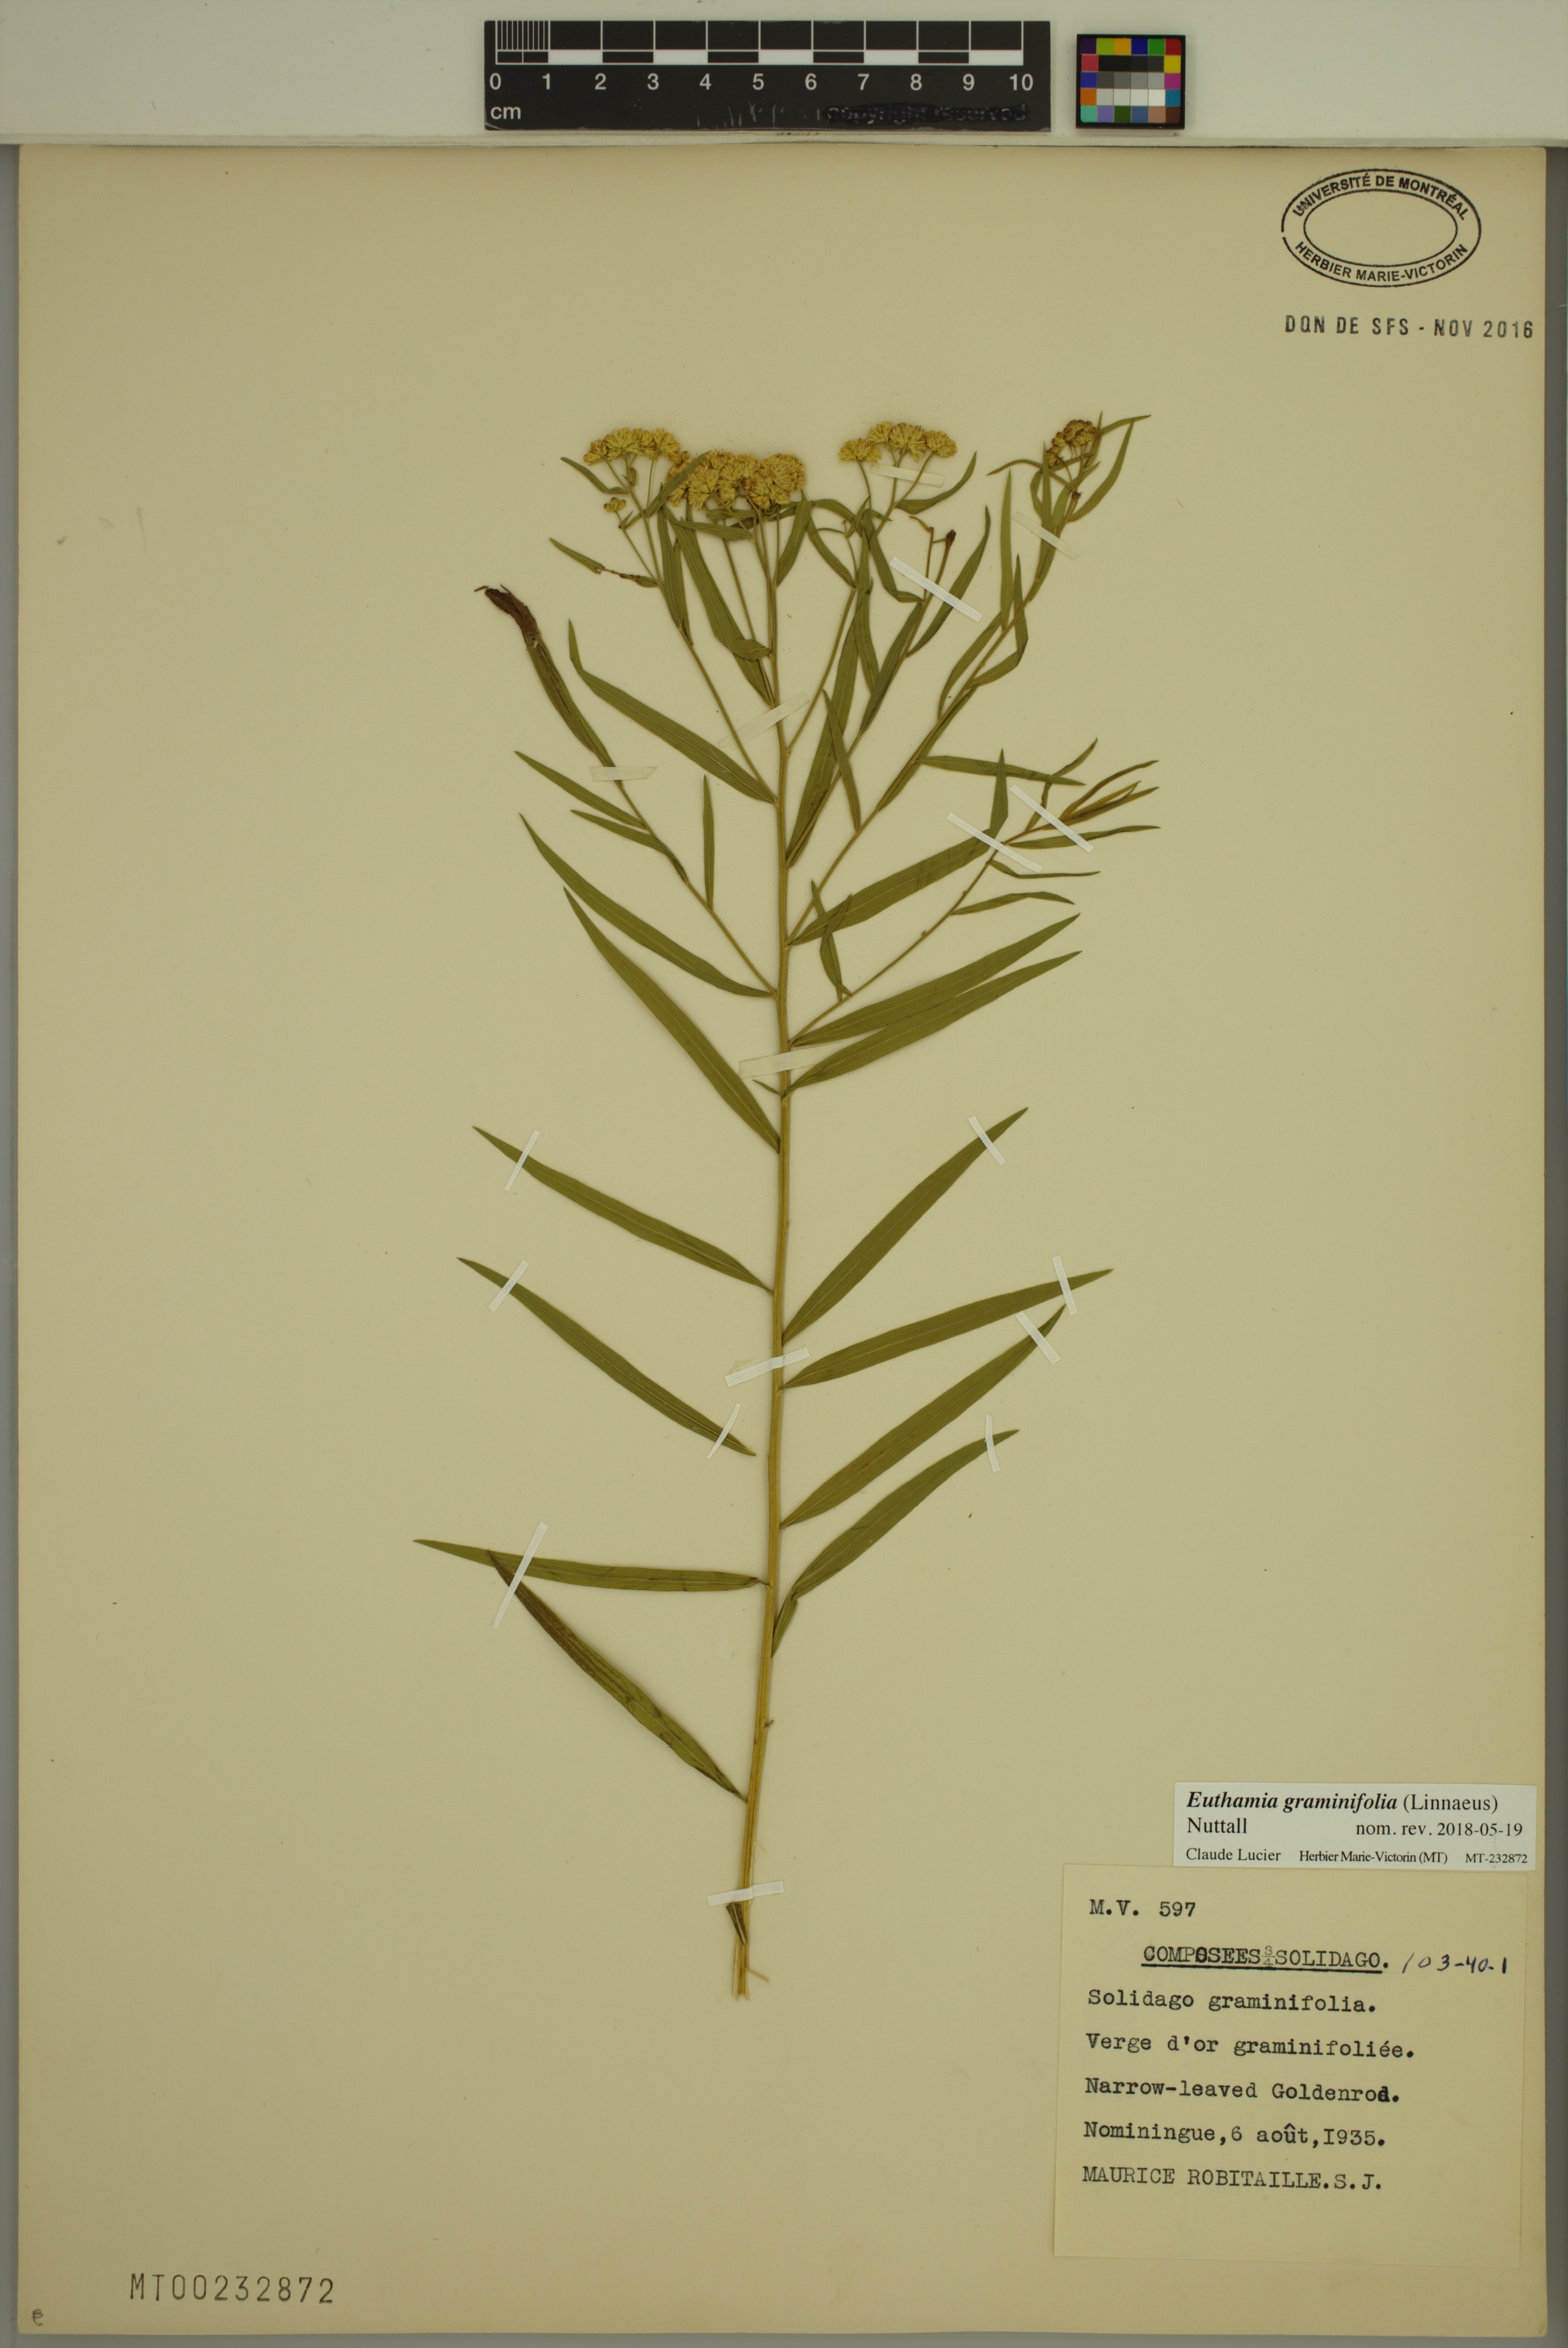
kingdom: Plantae
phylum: Tracheophyta
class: Magnoliopsida
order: Asterales
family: Asteraceae
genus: Euthamia
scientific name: Euthamia graminifolia
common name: Common goldentop
